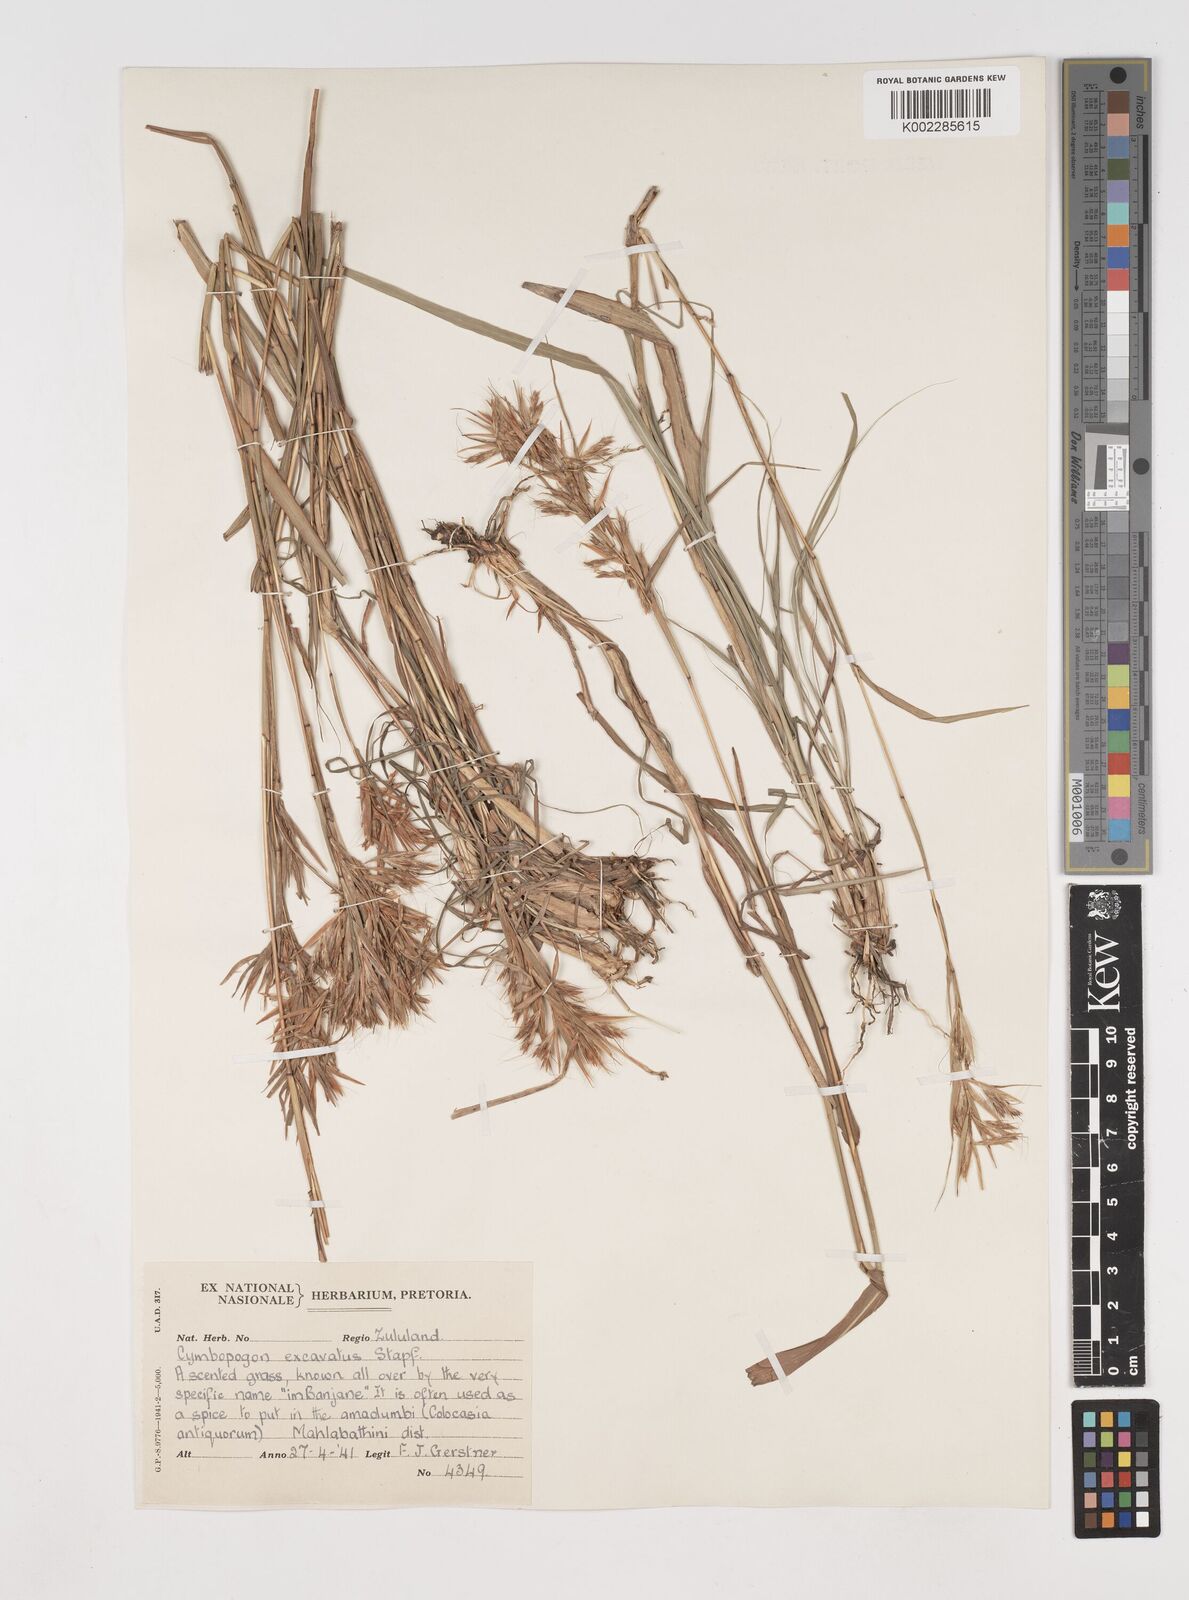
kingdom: Plantae
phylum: Tracheophyta
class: Liliopsida
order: Poales
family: Poaceae
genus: Cymbopogon
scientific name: Cymbopogon caesius
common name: Kachi grass
